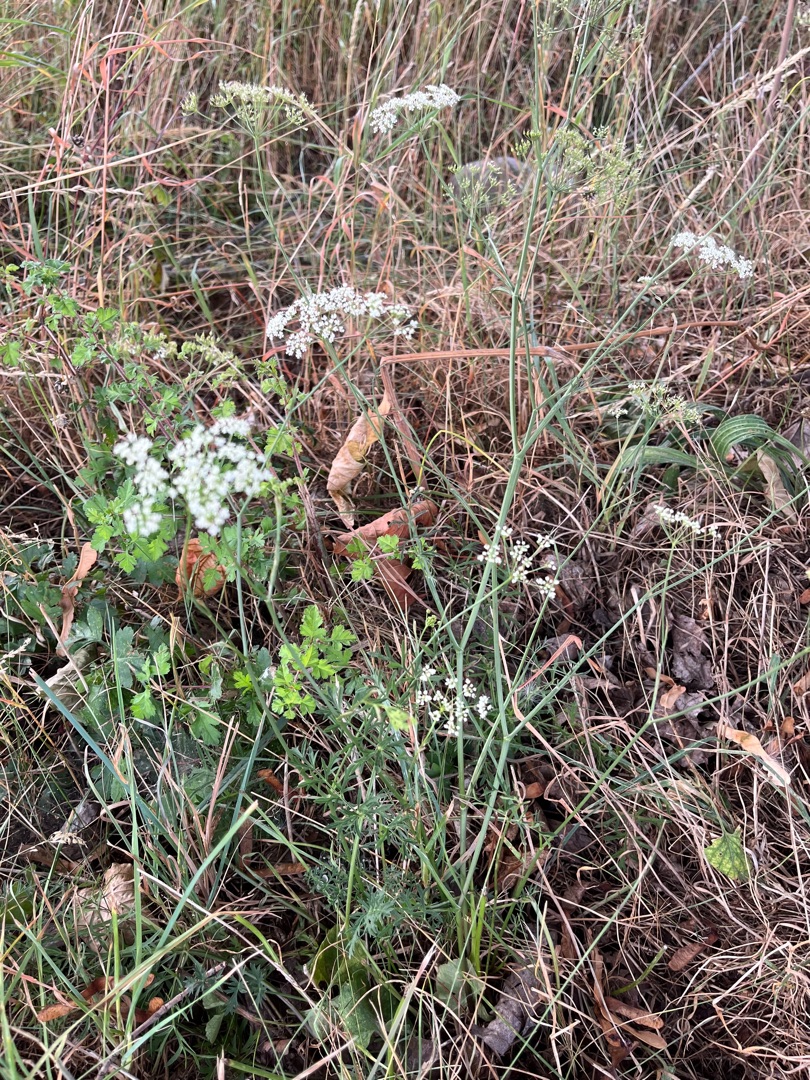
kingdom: Plantae
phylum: Tracheophyta
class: Magnoliopsida
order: Apiales
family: Apiaceae
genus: Pimpinella
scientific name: Pimpinella saxifraga
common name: Almindelig pimpinelle
